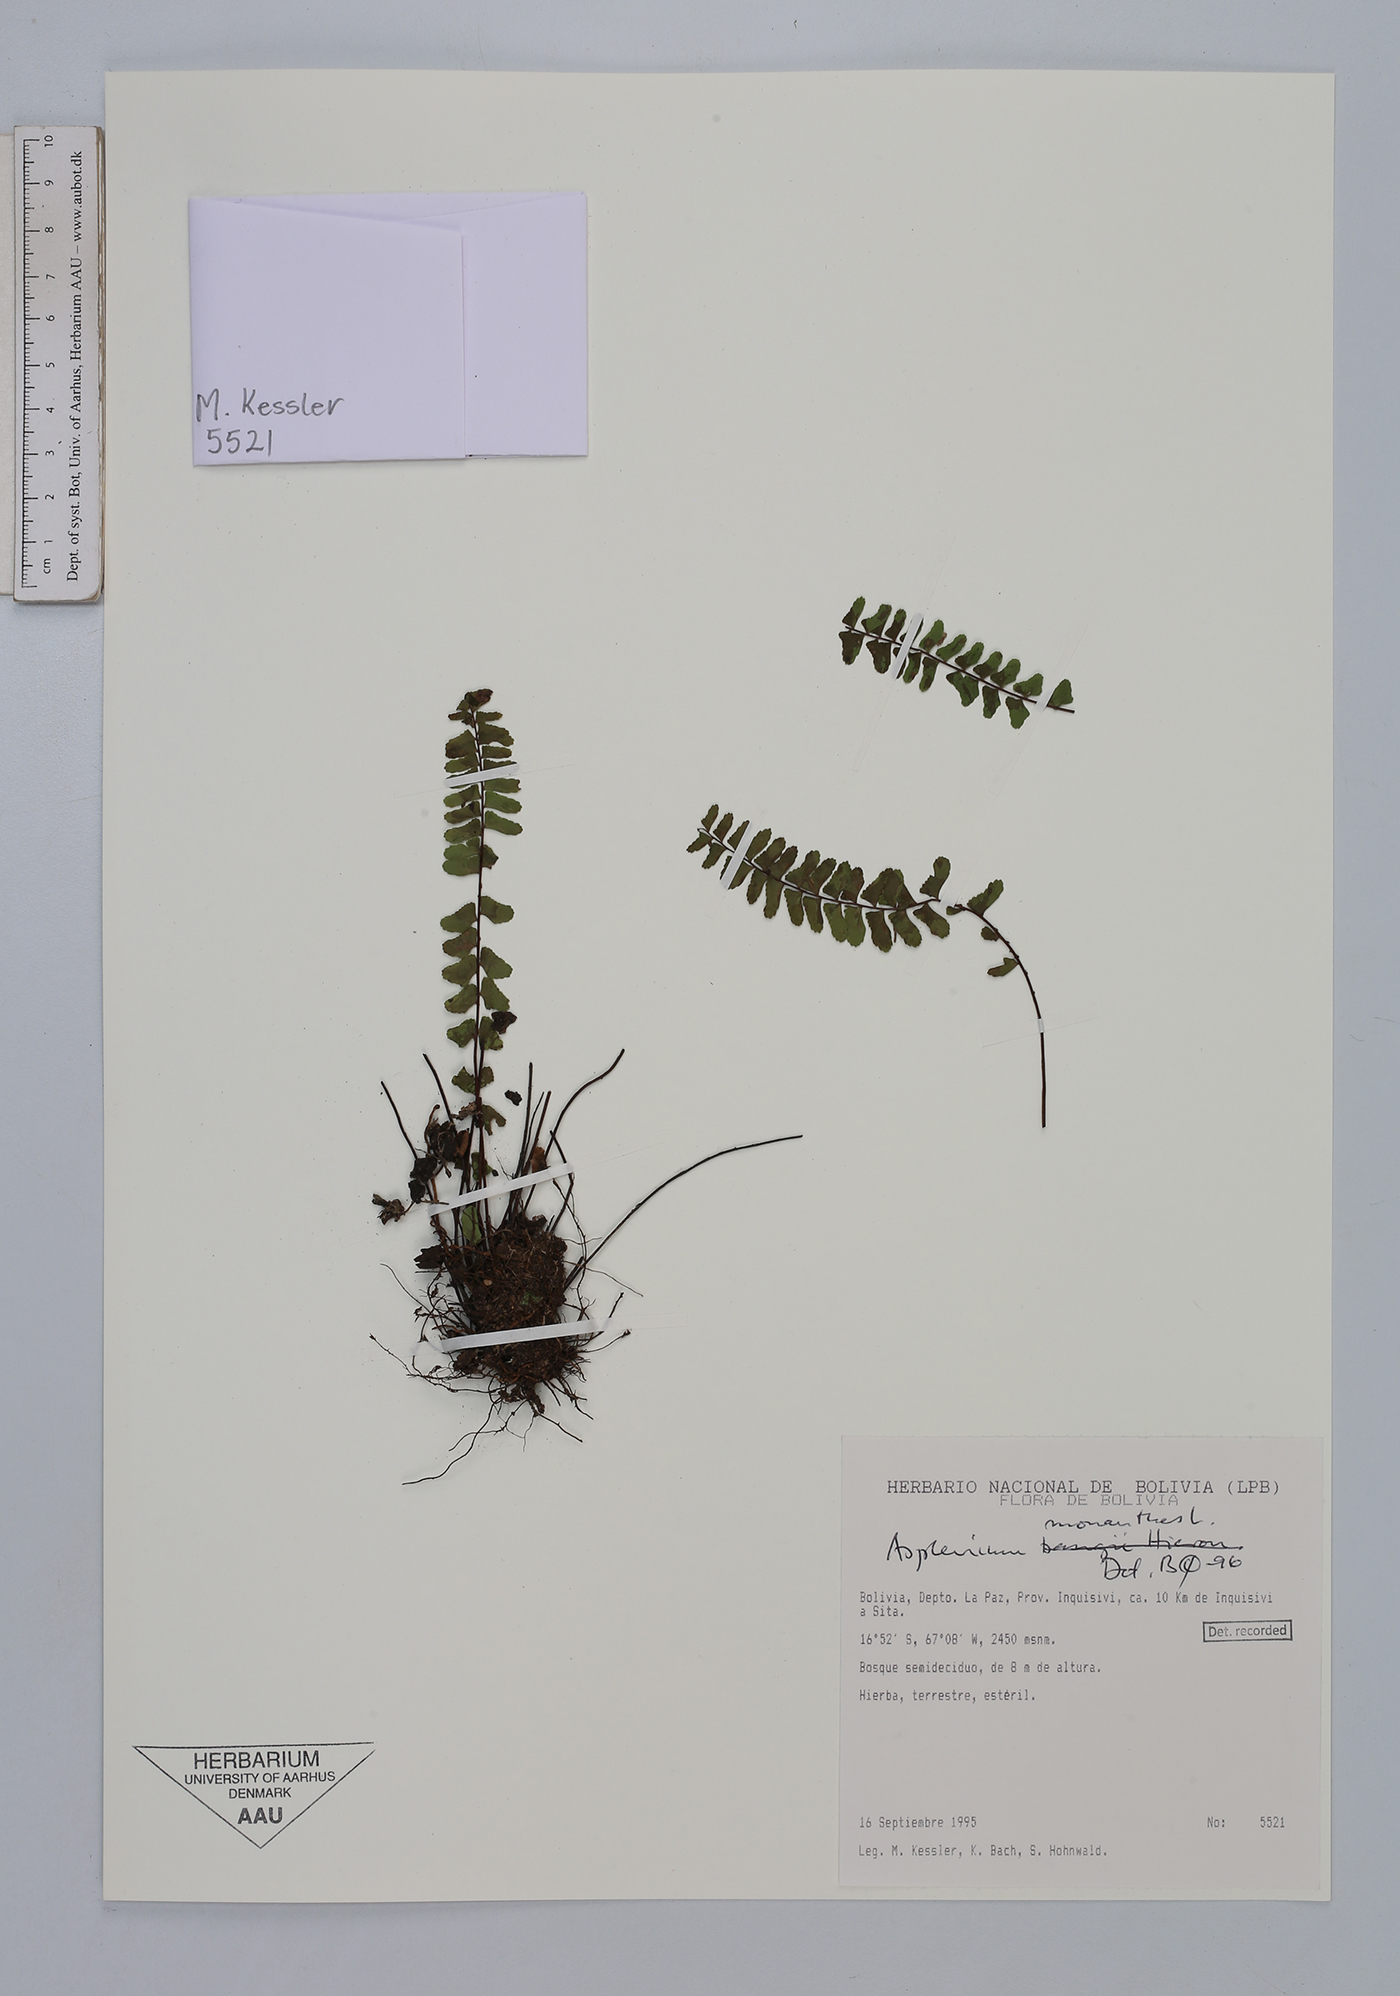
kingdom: Plantae
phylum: Tracheophyta
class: Polypodiopsida
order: Polypodiales
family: Aspleniaceae
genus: Asplenium
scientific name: Asplenium monanthes
